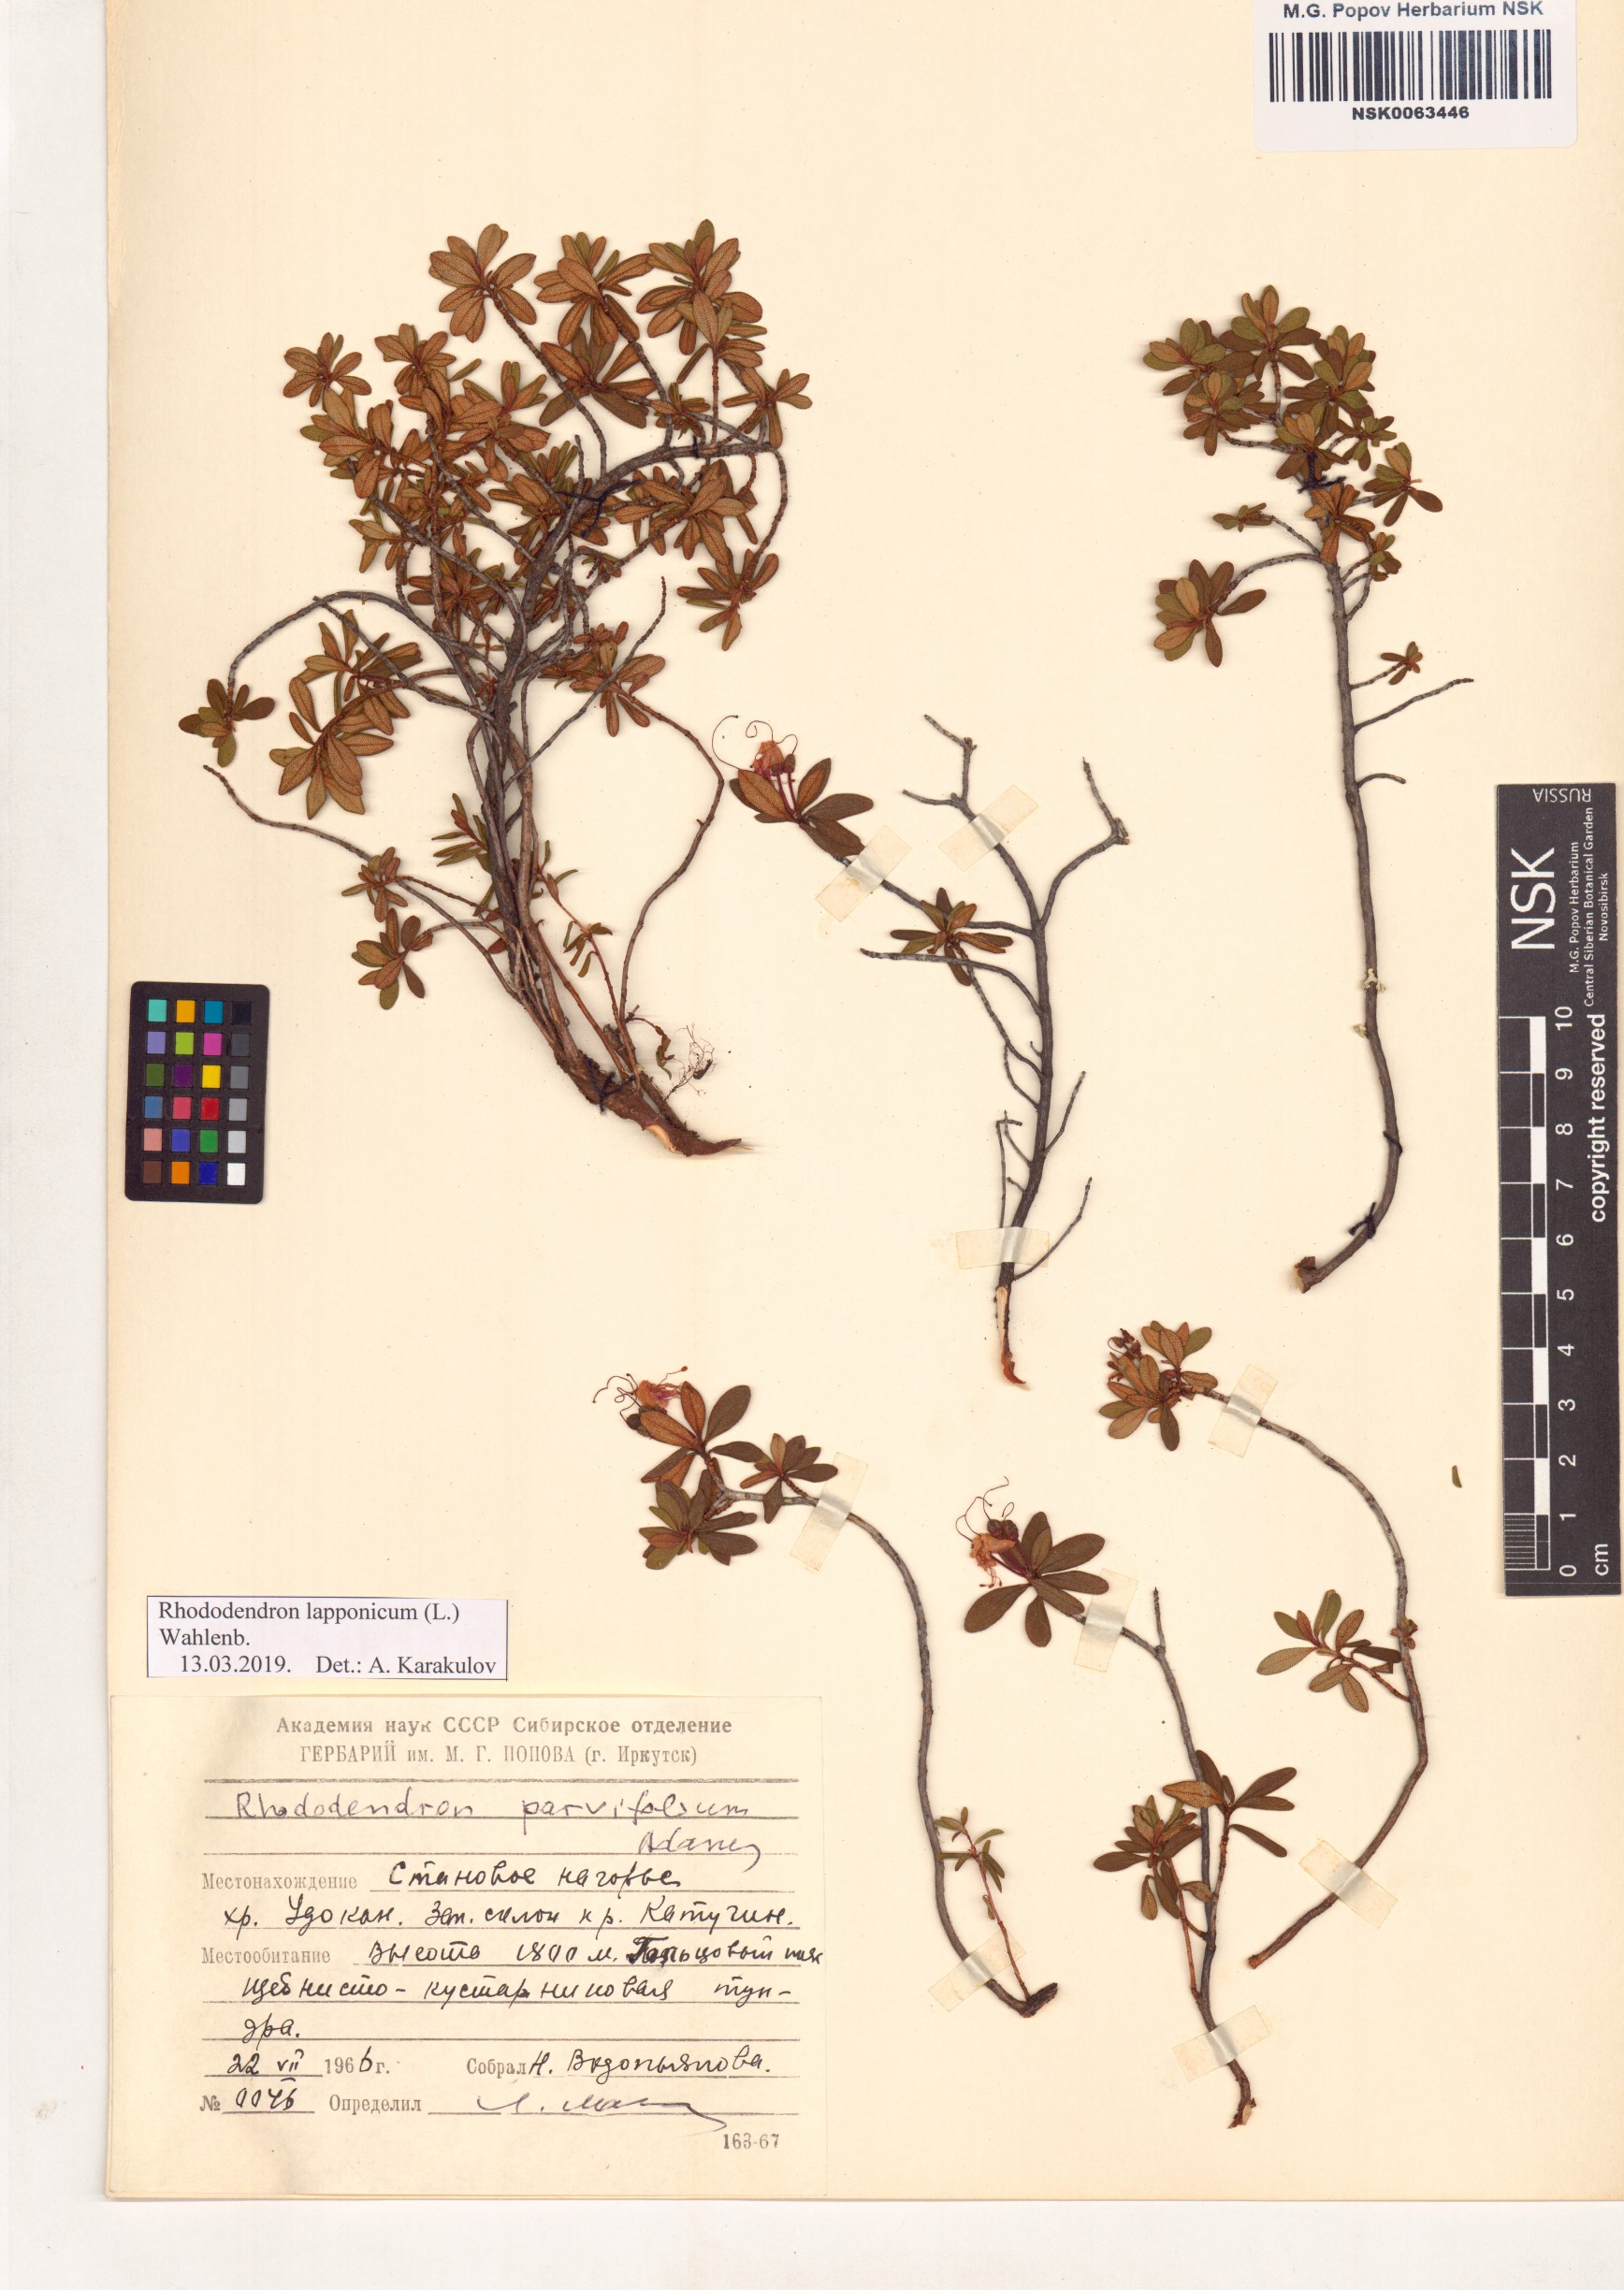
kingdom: Plantae
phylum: Tracheophyta
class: Magnoliopsida
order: Ericales
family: Ericaceae
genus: Rhododendron
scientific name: Rhododendron lapponicum
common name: Lapland rhododendron
